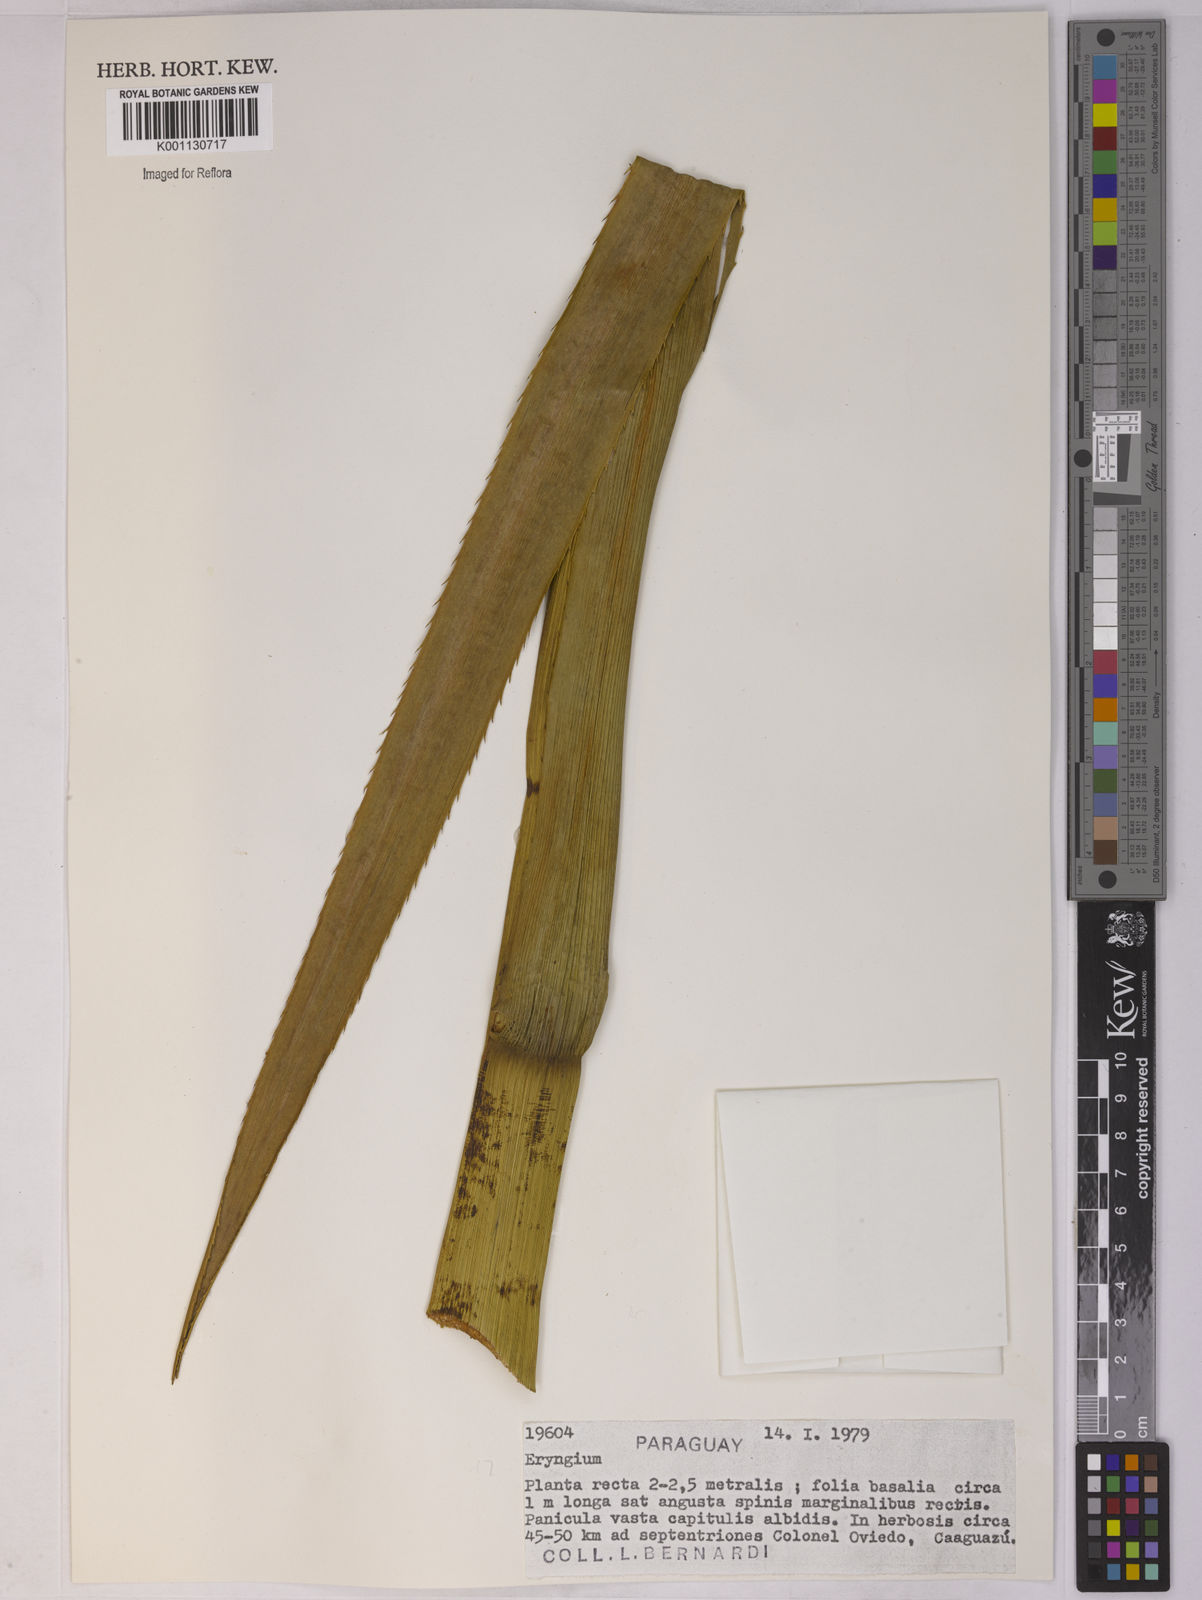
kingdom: Plantae
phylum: Tracheophyta
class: Magnoliopsida
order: Apiales
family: Apiaceae
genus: Eryngium
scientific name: Eryngium
